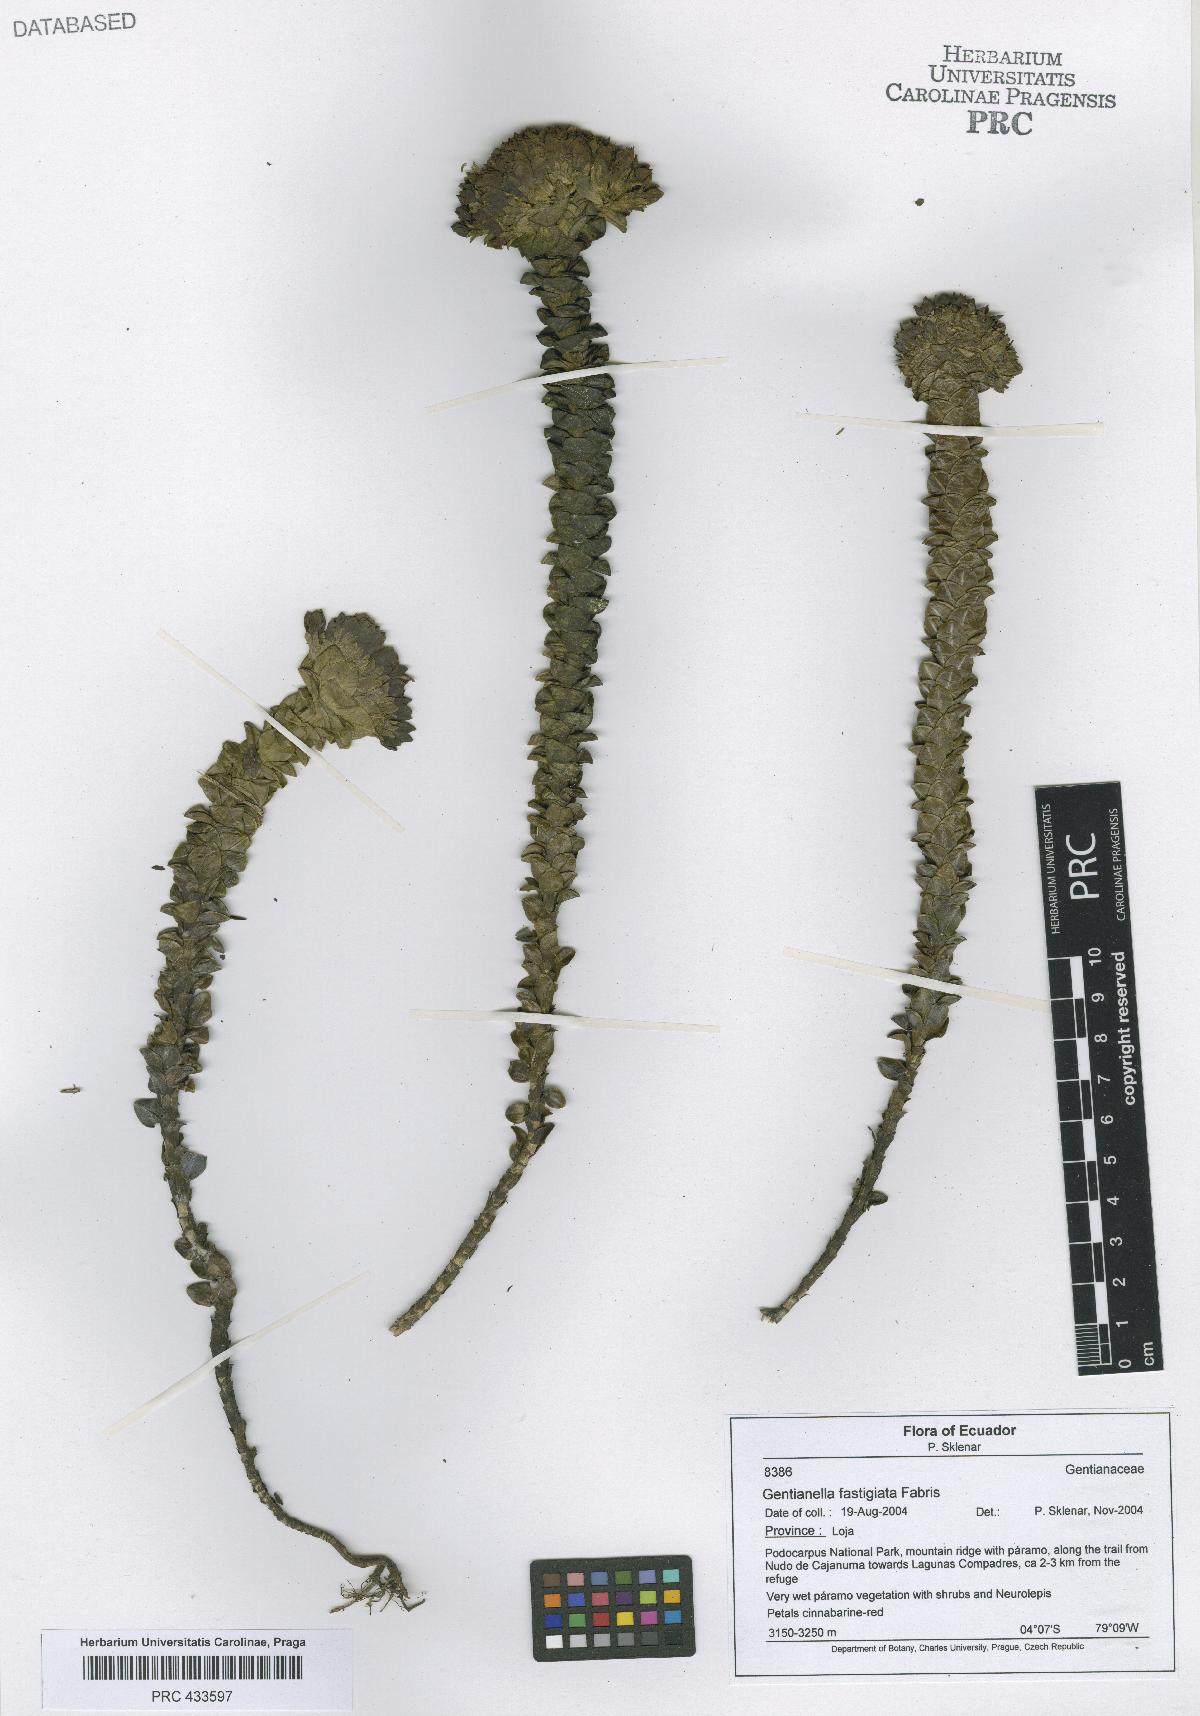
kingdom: Plantae
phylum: Tracheophyta
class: Magnoliopsida
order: Gentianales
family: Gentianaceae
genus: Gentianella
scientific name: Gentianella
